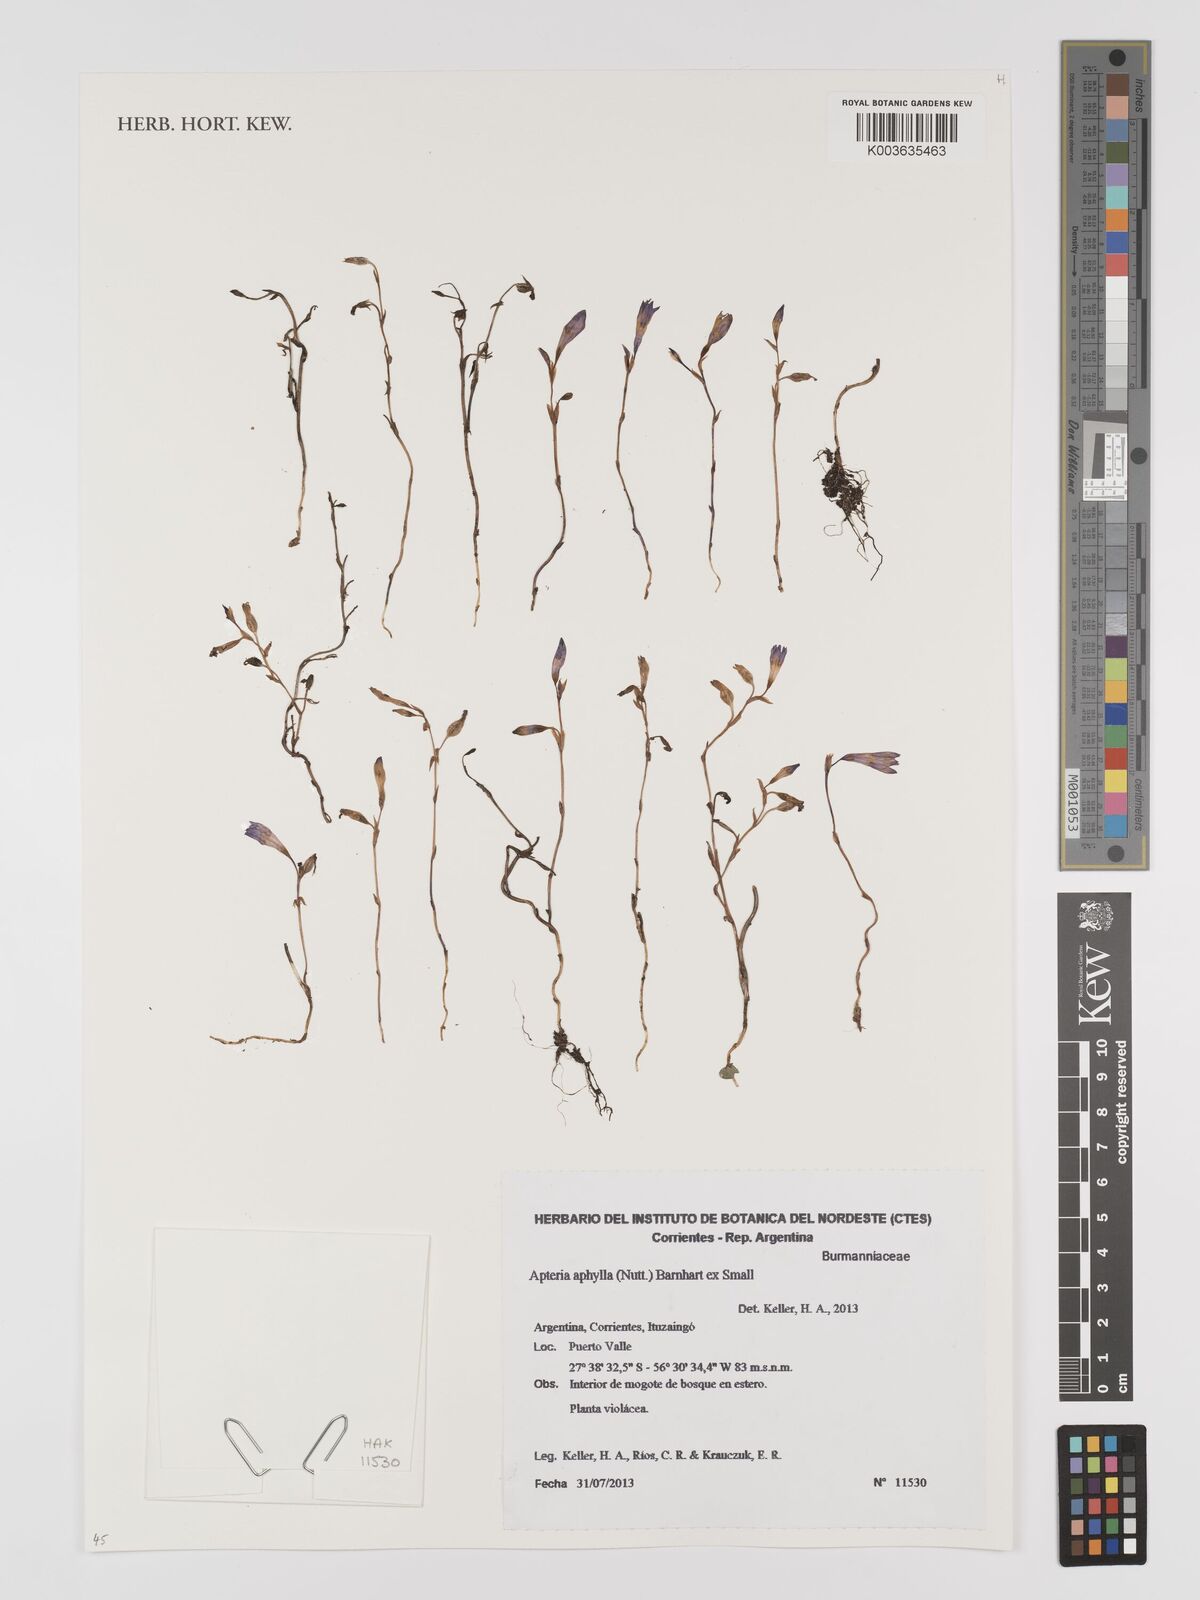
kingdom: Plantae
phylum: Tracheophyta
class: Liliopsida
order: Dioscoreales
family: Burmanniaceae
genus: Apteria
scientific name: Apteria aphylla
